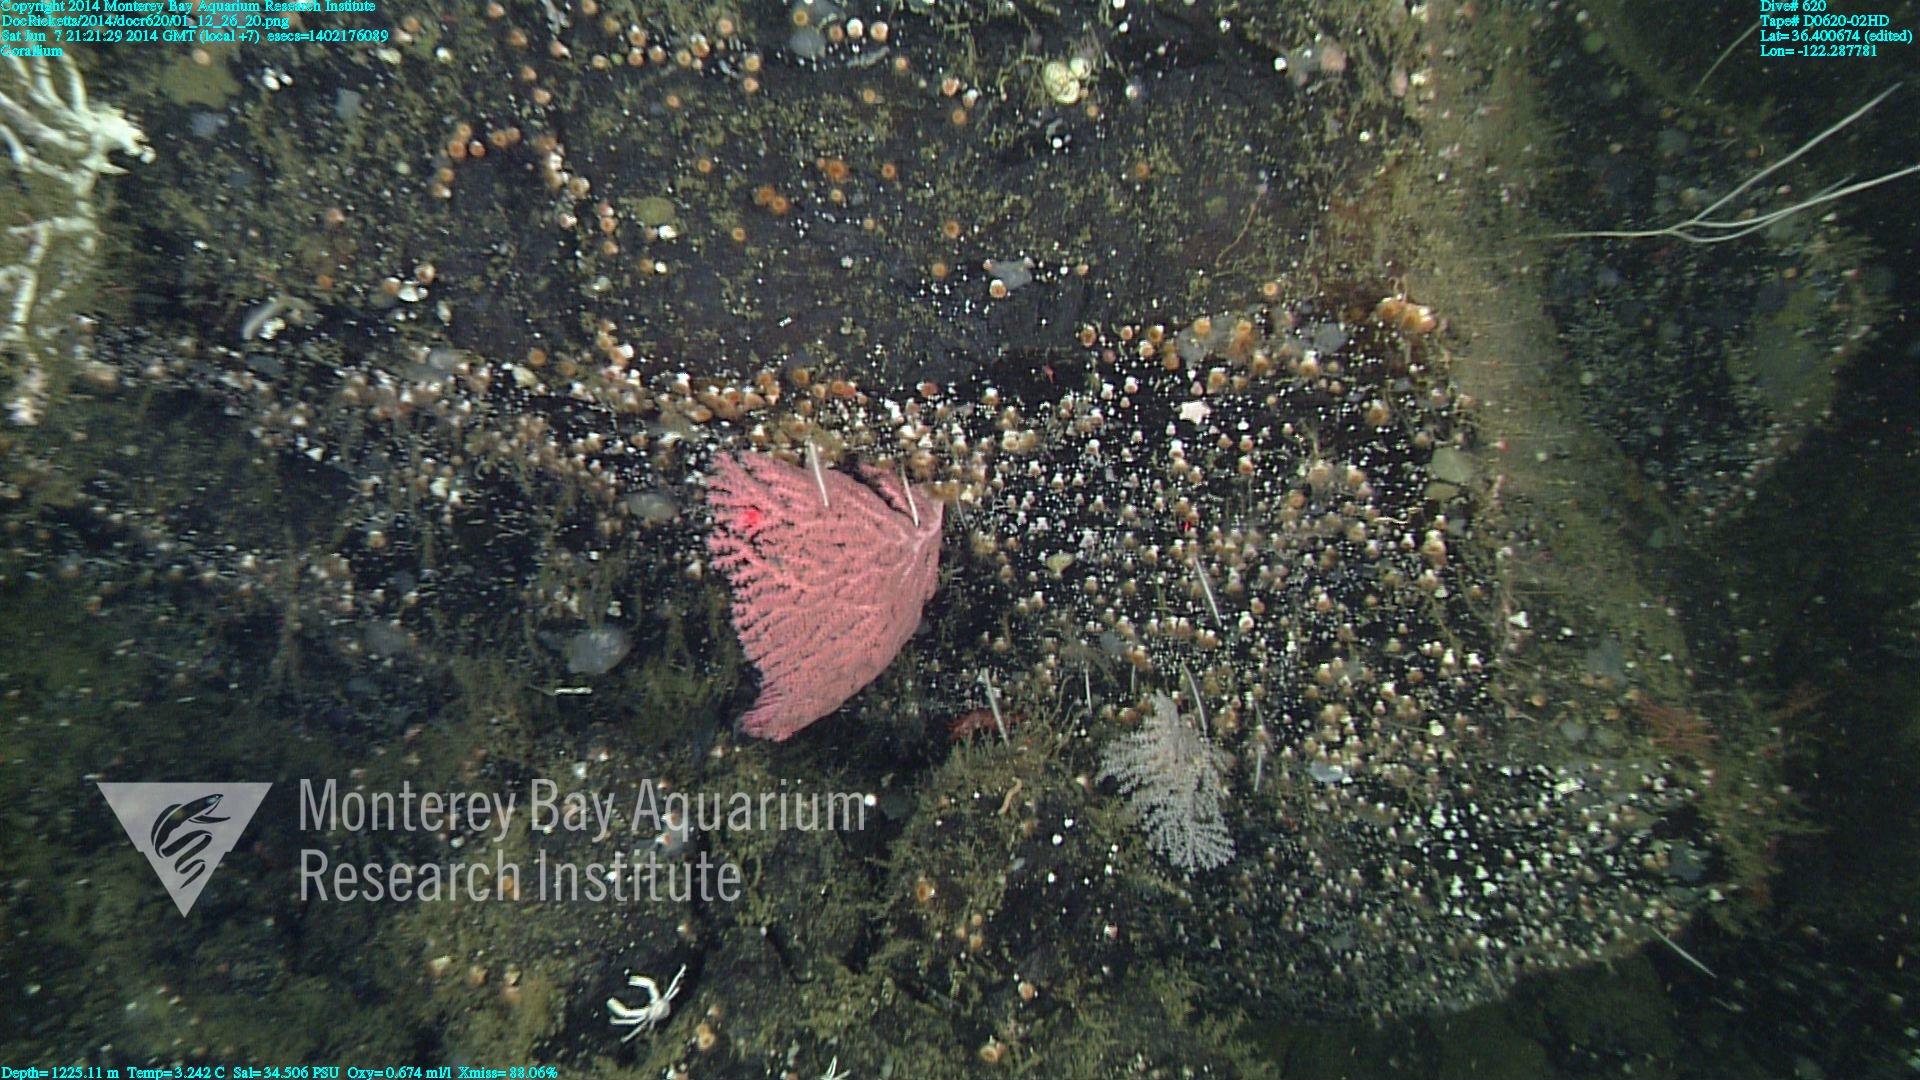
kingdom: Animalia
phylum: Cnidaria
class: Anthozoa
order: Scleralcyonacea
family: Coralliidae
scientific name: Coralliidae
